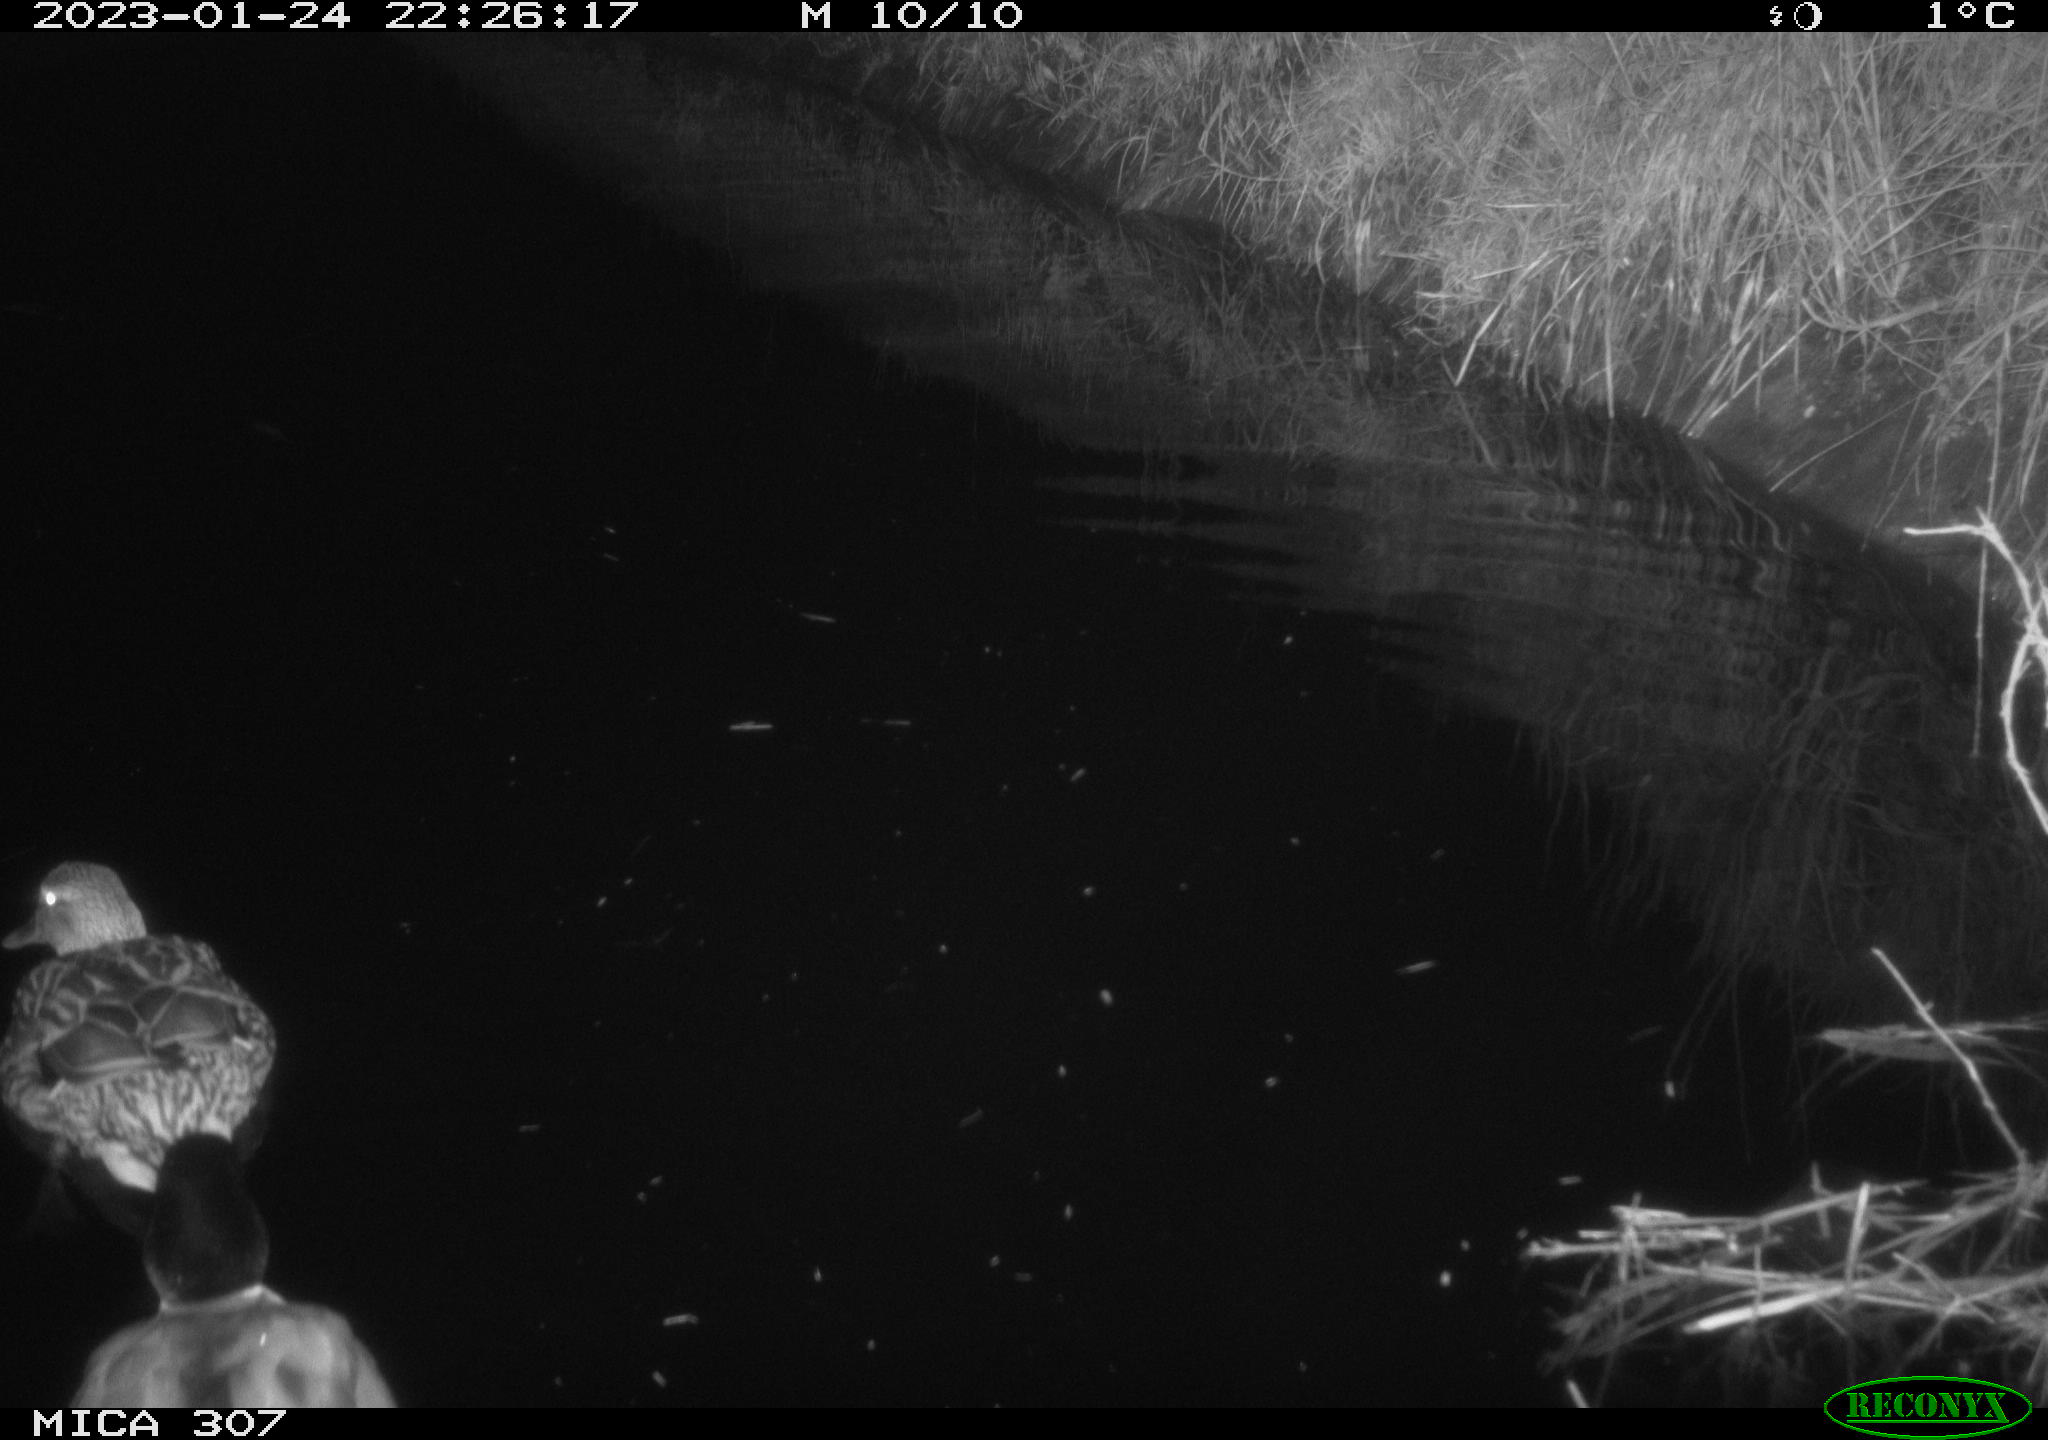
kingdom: Animalia
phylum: Chordata
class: Aves
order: Anseriformes
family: Anatidae
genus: Anas
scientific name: Anas
